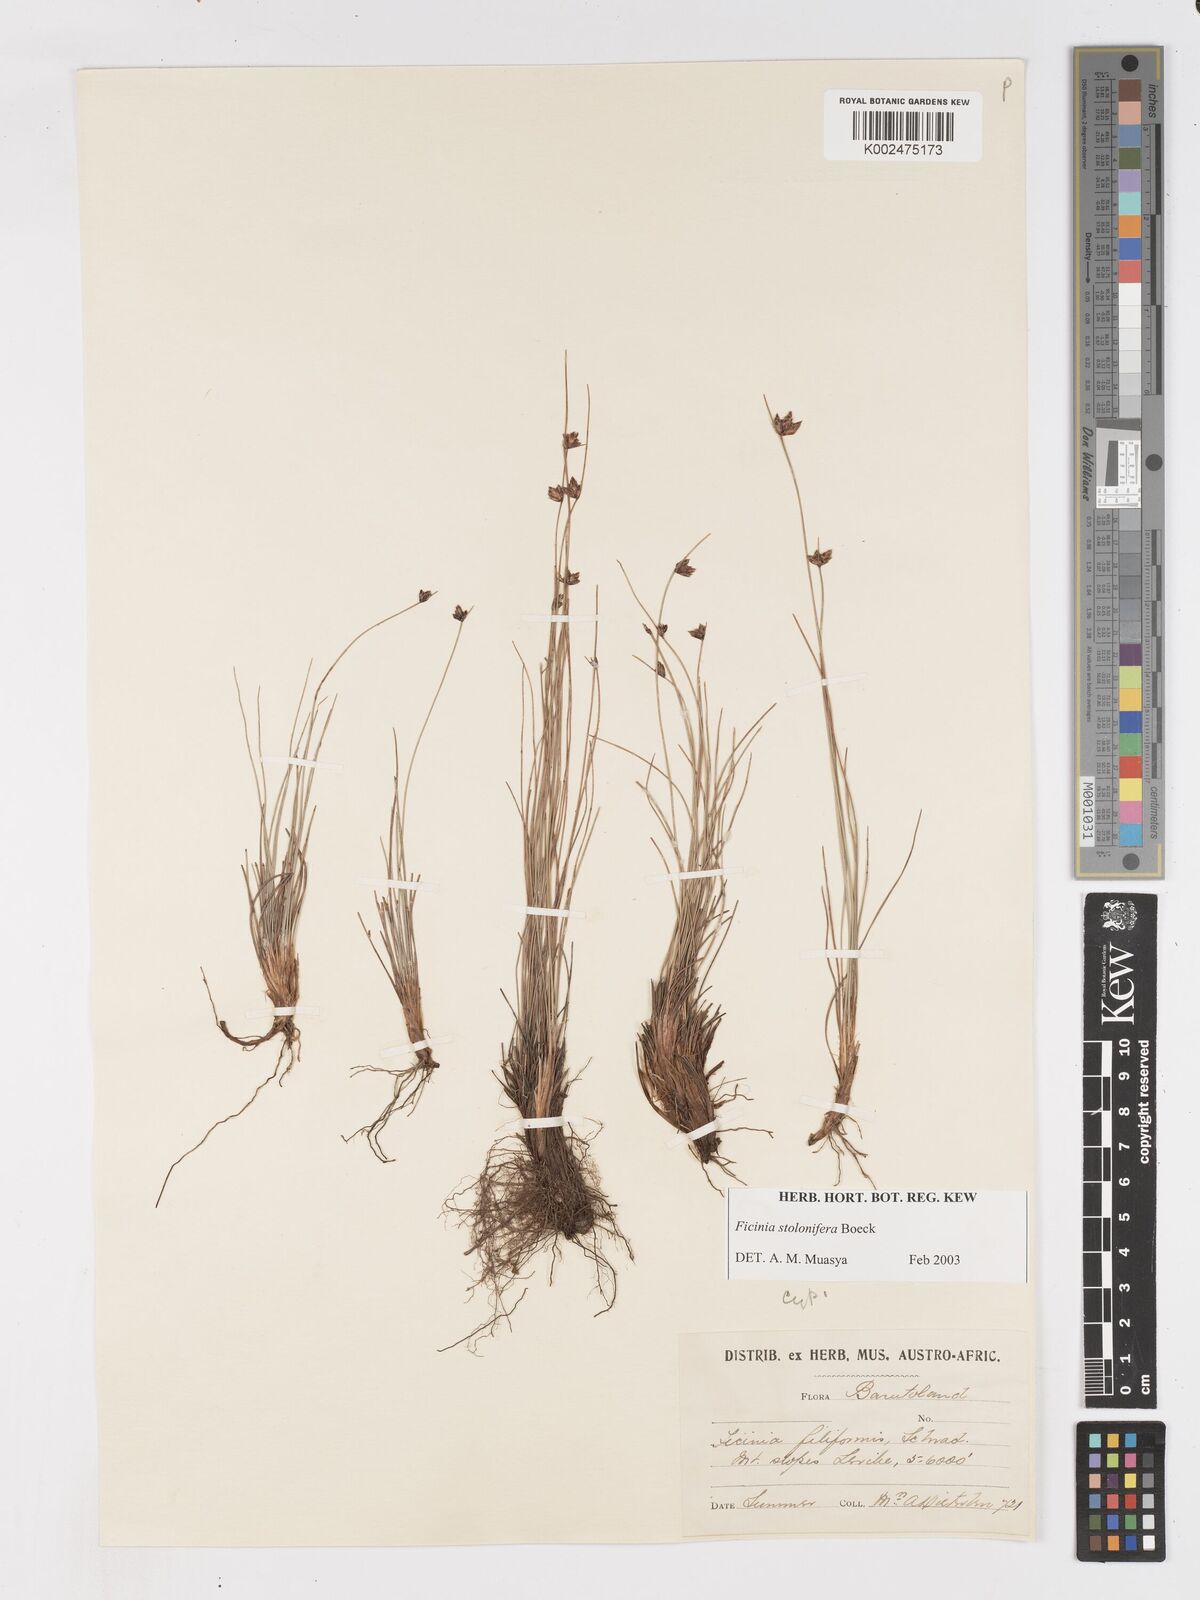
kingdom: Plantae
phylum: Tracheophyta
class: Liliopsida
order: Poales
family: Cyperaceae
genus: Ficinia
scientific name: Ficinia stolonifera
